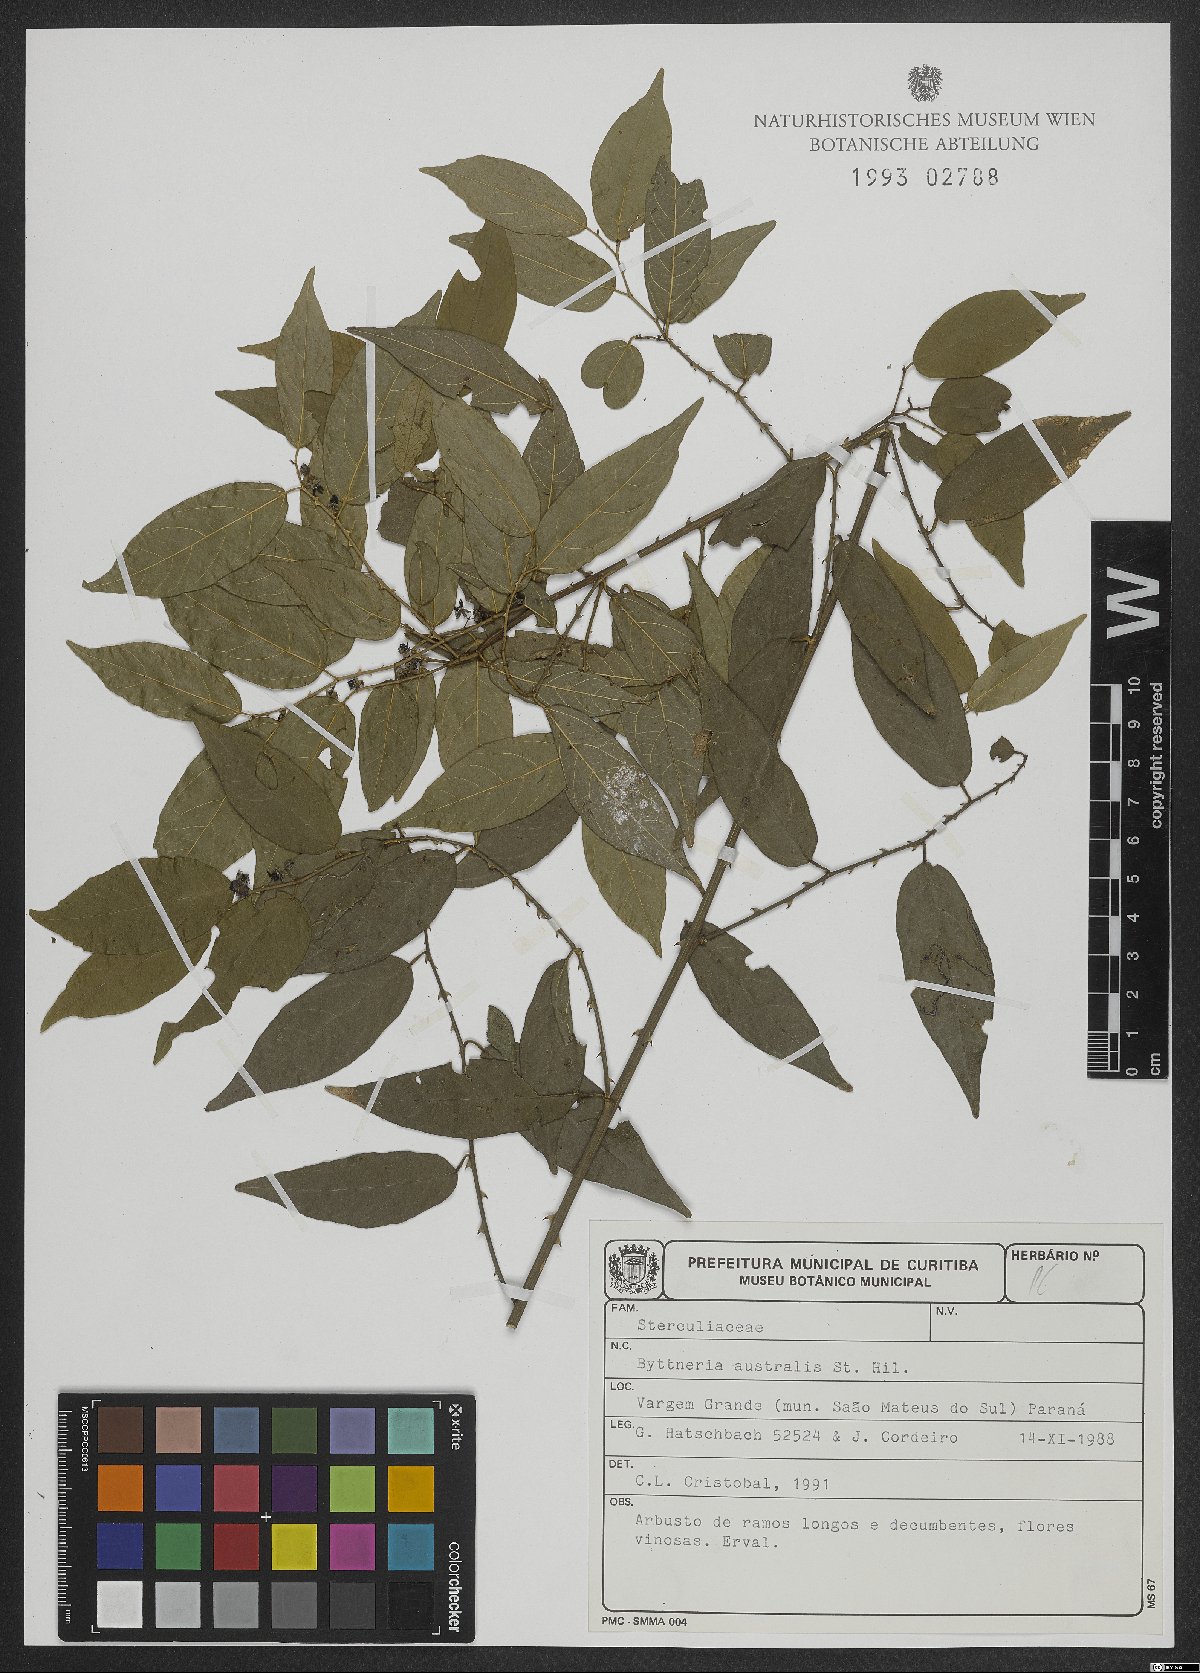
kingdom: Plantae
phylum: Tracheophyta
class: Magnoliopsida
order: Malvales
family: Malvaceae
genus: Byttneria
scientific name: Byttneria australis
